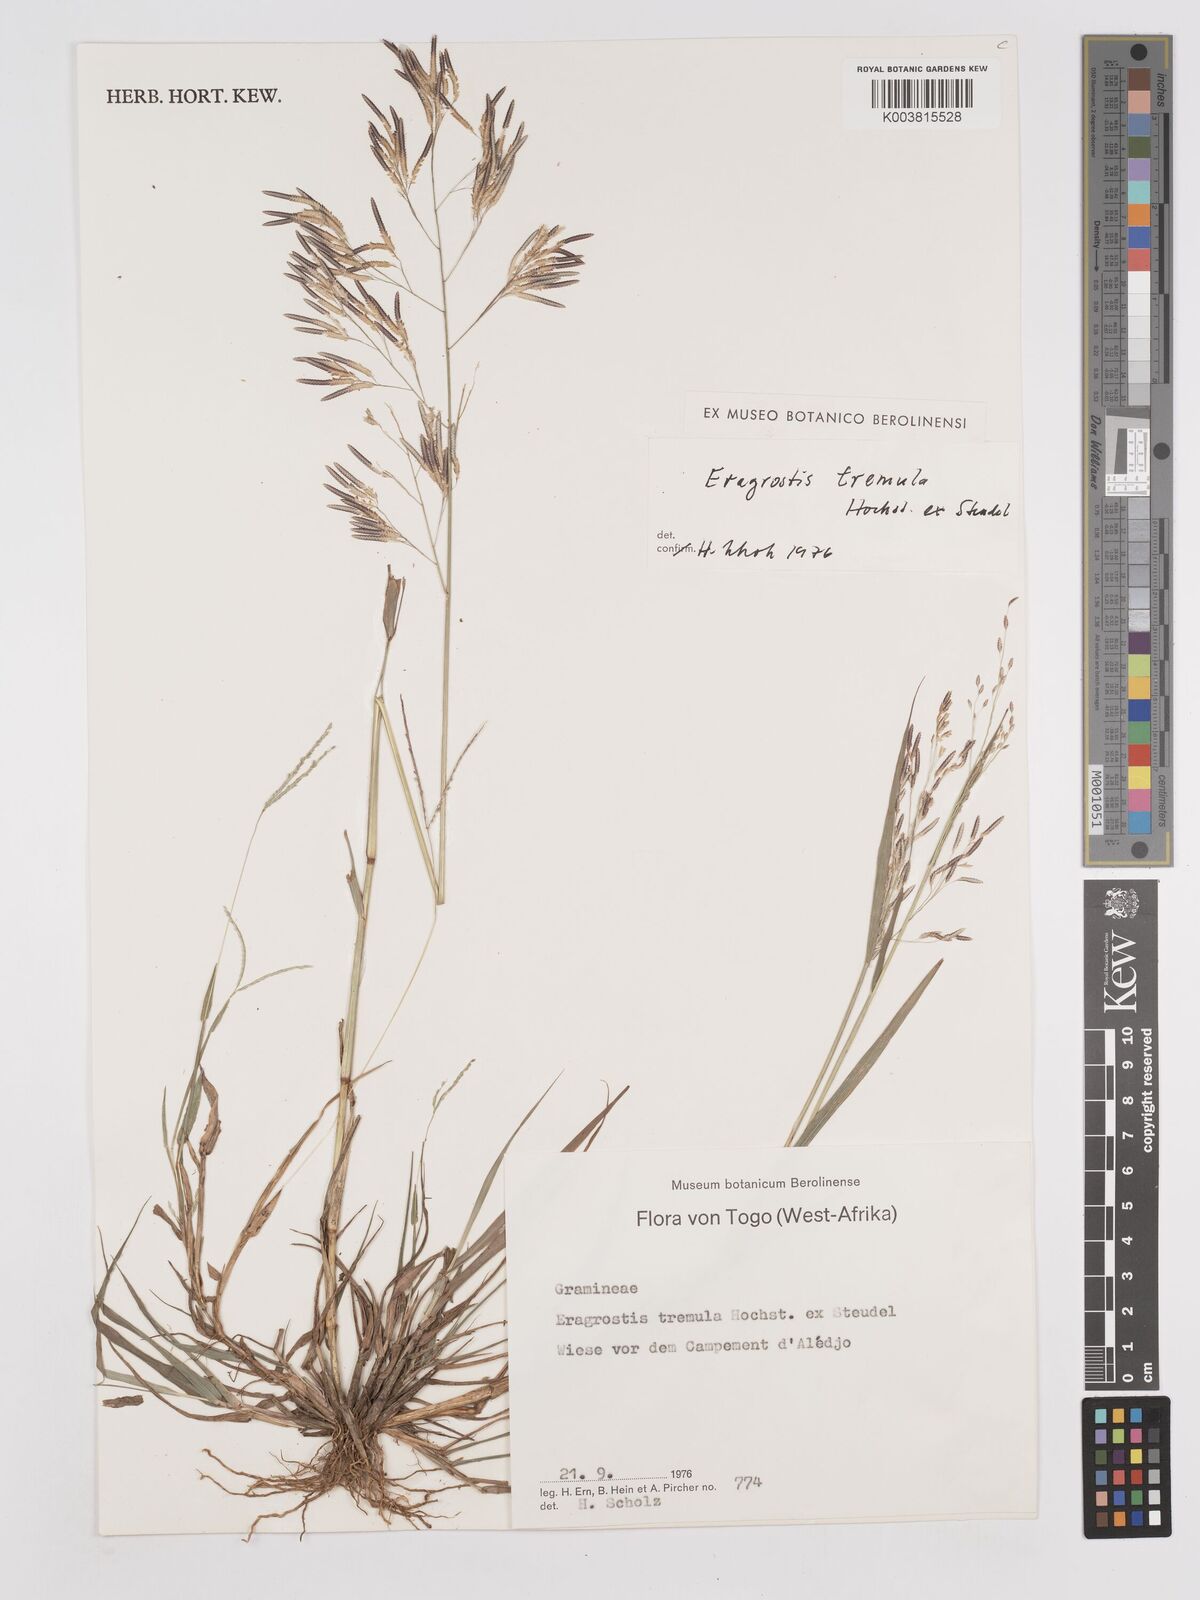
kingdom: Plantae
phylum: Tracheophyta
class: Liliopsida
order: Poales
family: Poaceae
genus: Eragrostis
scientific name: Eragrostis tremula
